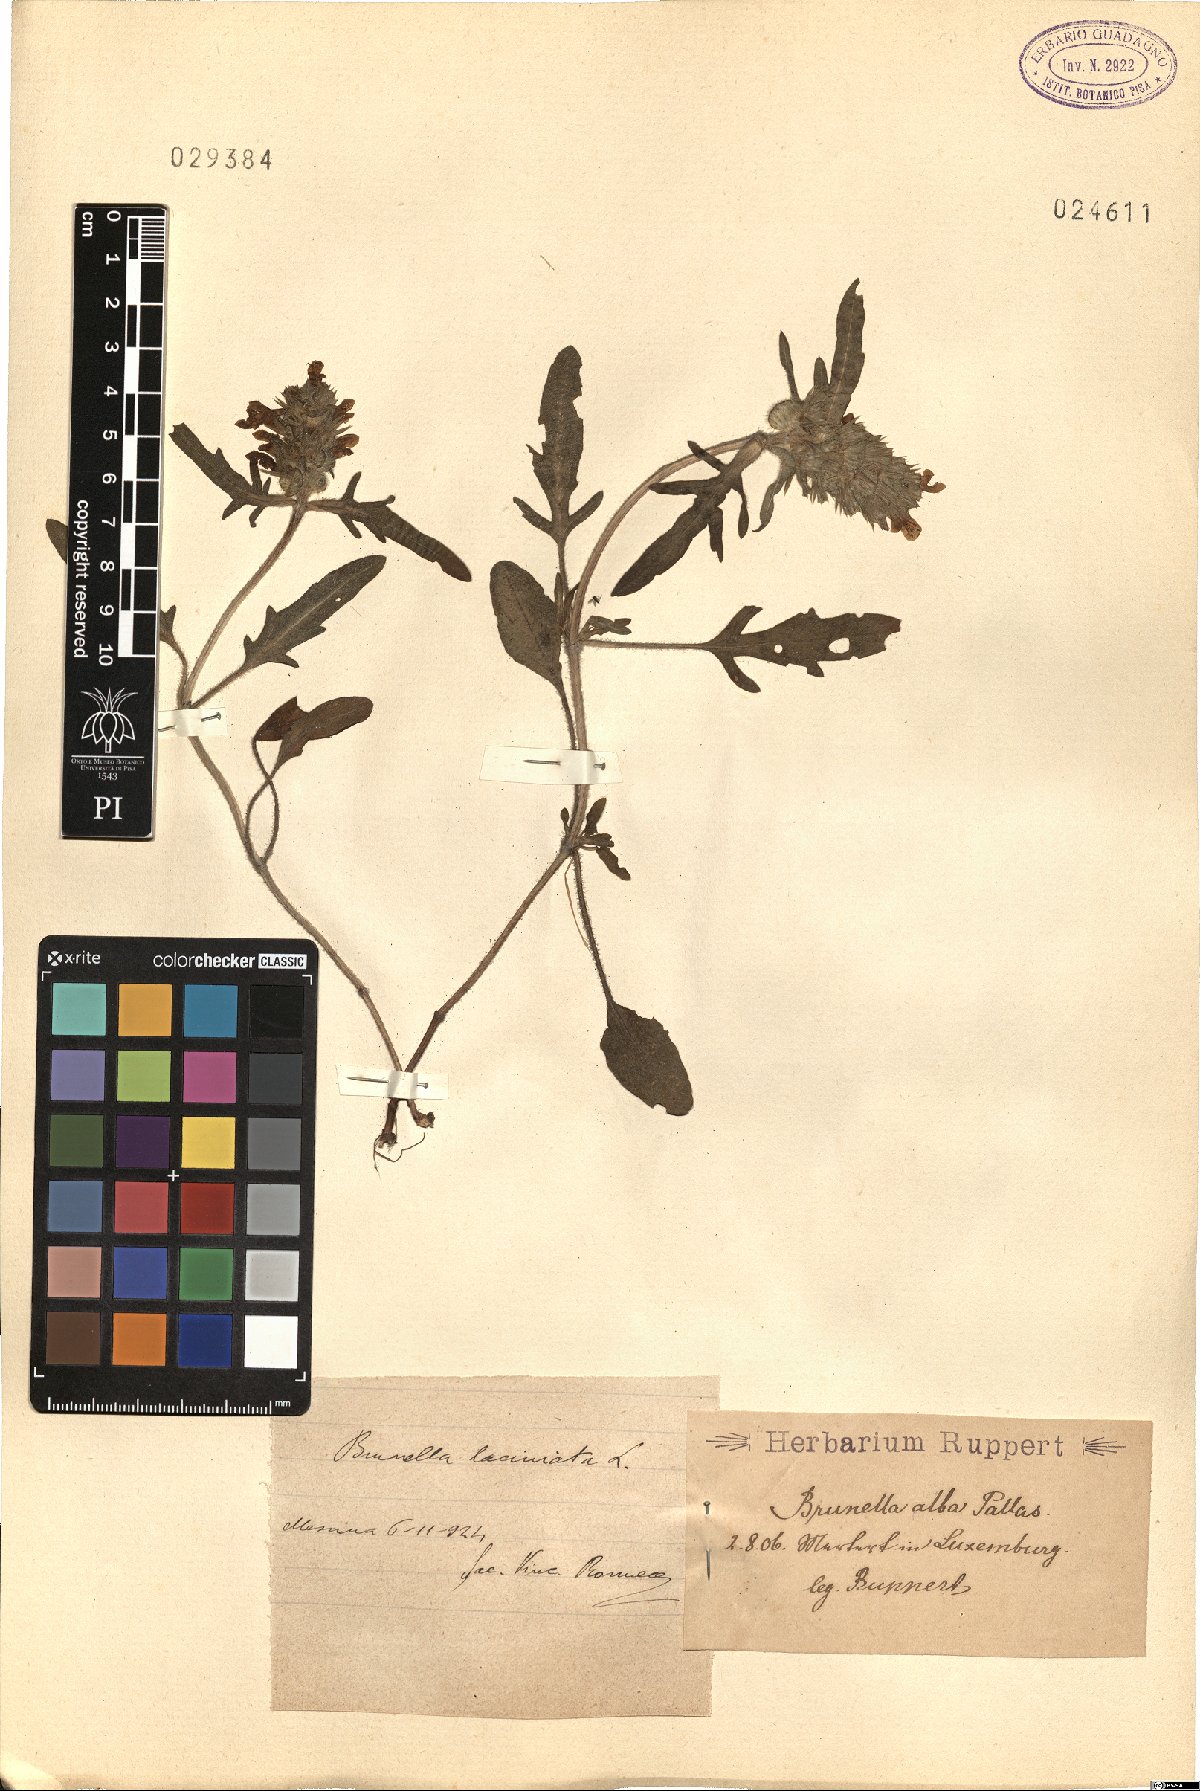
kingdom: Plantae
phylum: Tracheophyta
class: Magnoliopsida
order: Lamiales
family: Lamiaceae
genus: Prunella
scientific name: Prunella laciniata
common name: Cut-leaved selfheal
